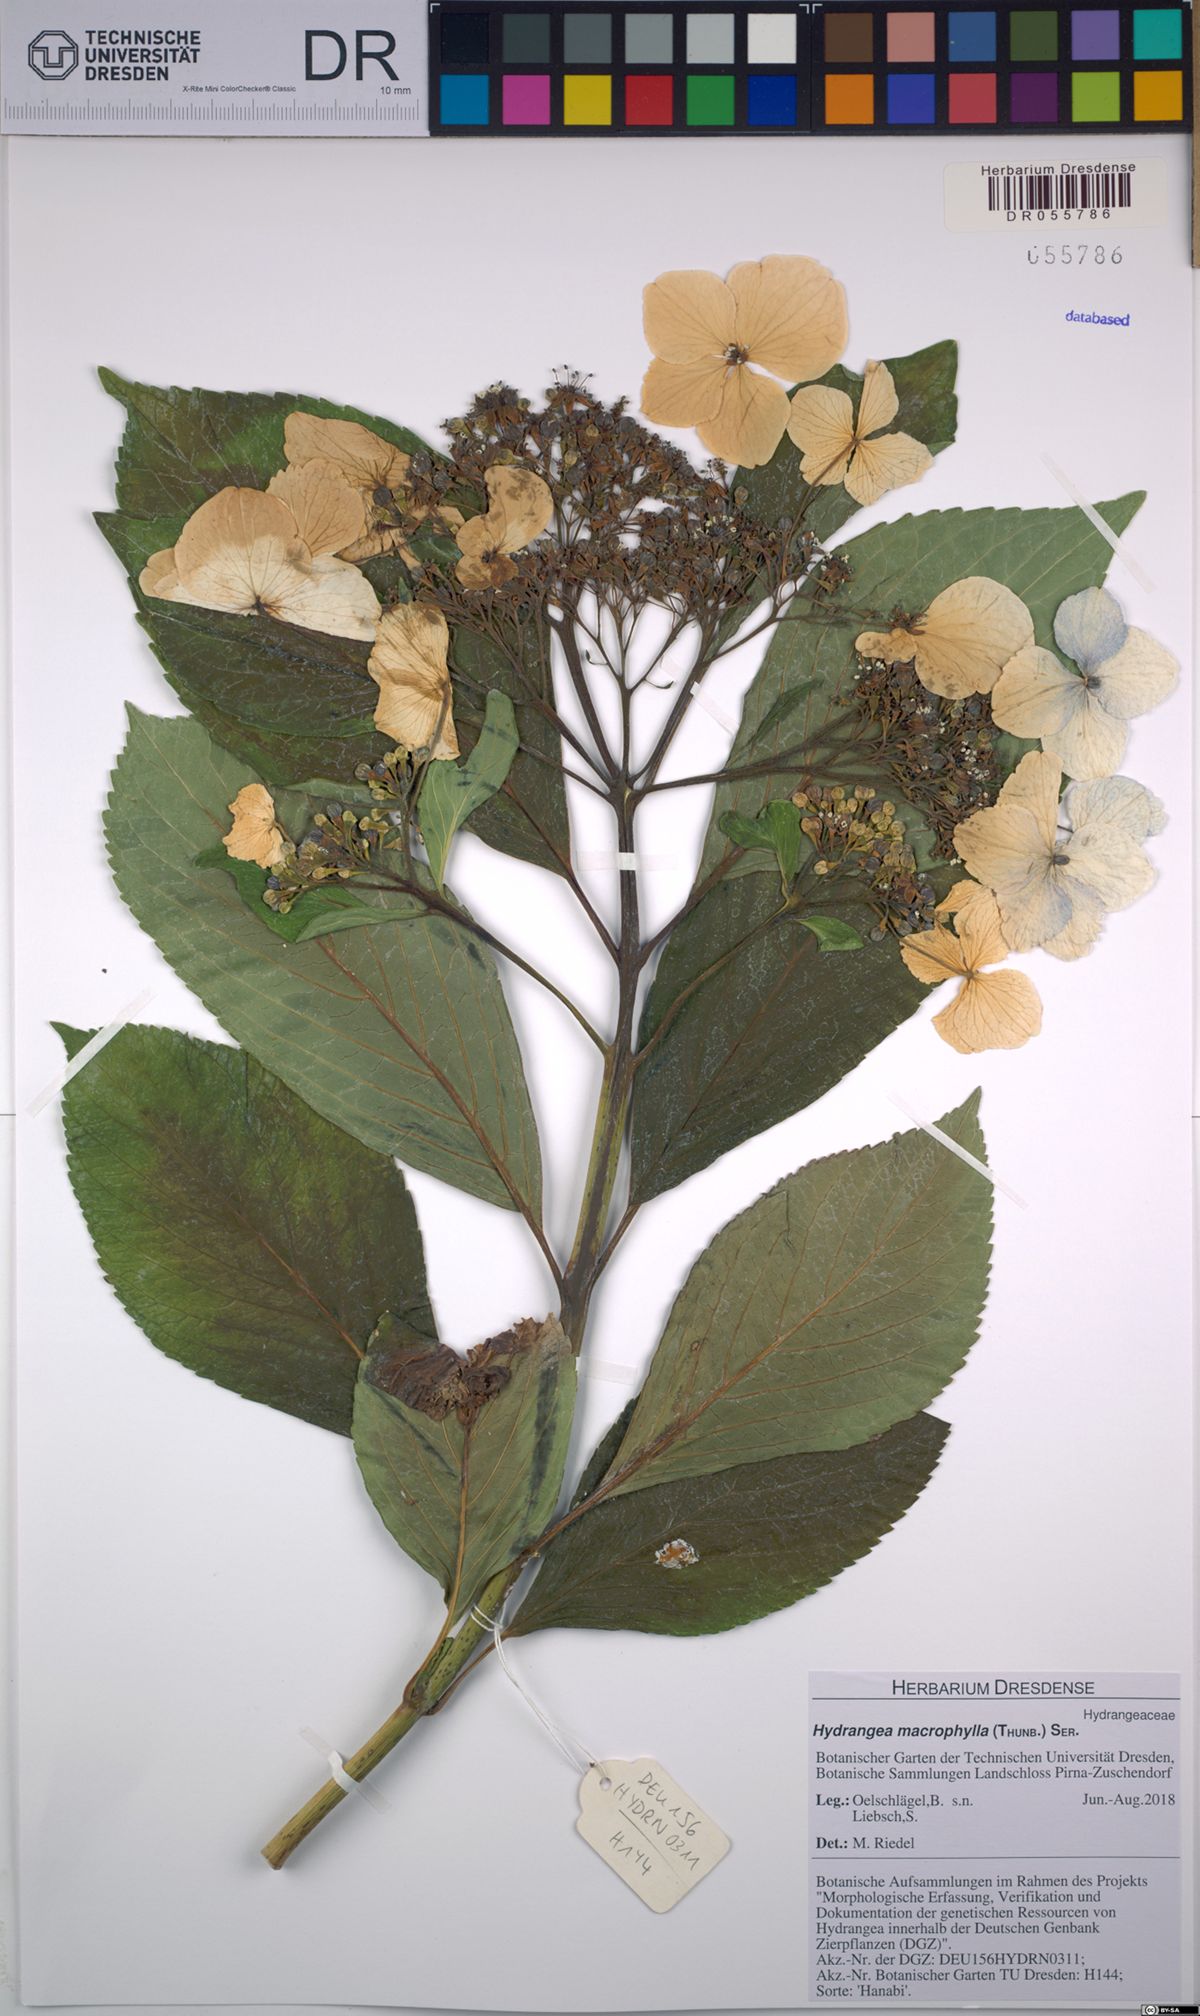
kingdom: Plantae
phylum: Tracheophyta
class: Magnoliopsida
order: Cornales
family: Hydrangeaceae
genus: Hydrangea
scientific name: Hydrangea macrophylla
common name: Hydrangea
